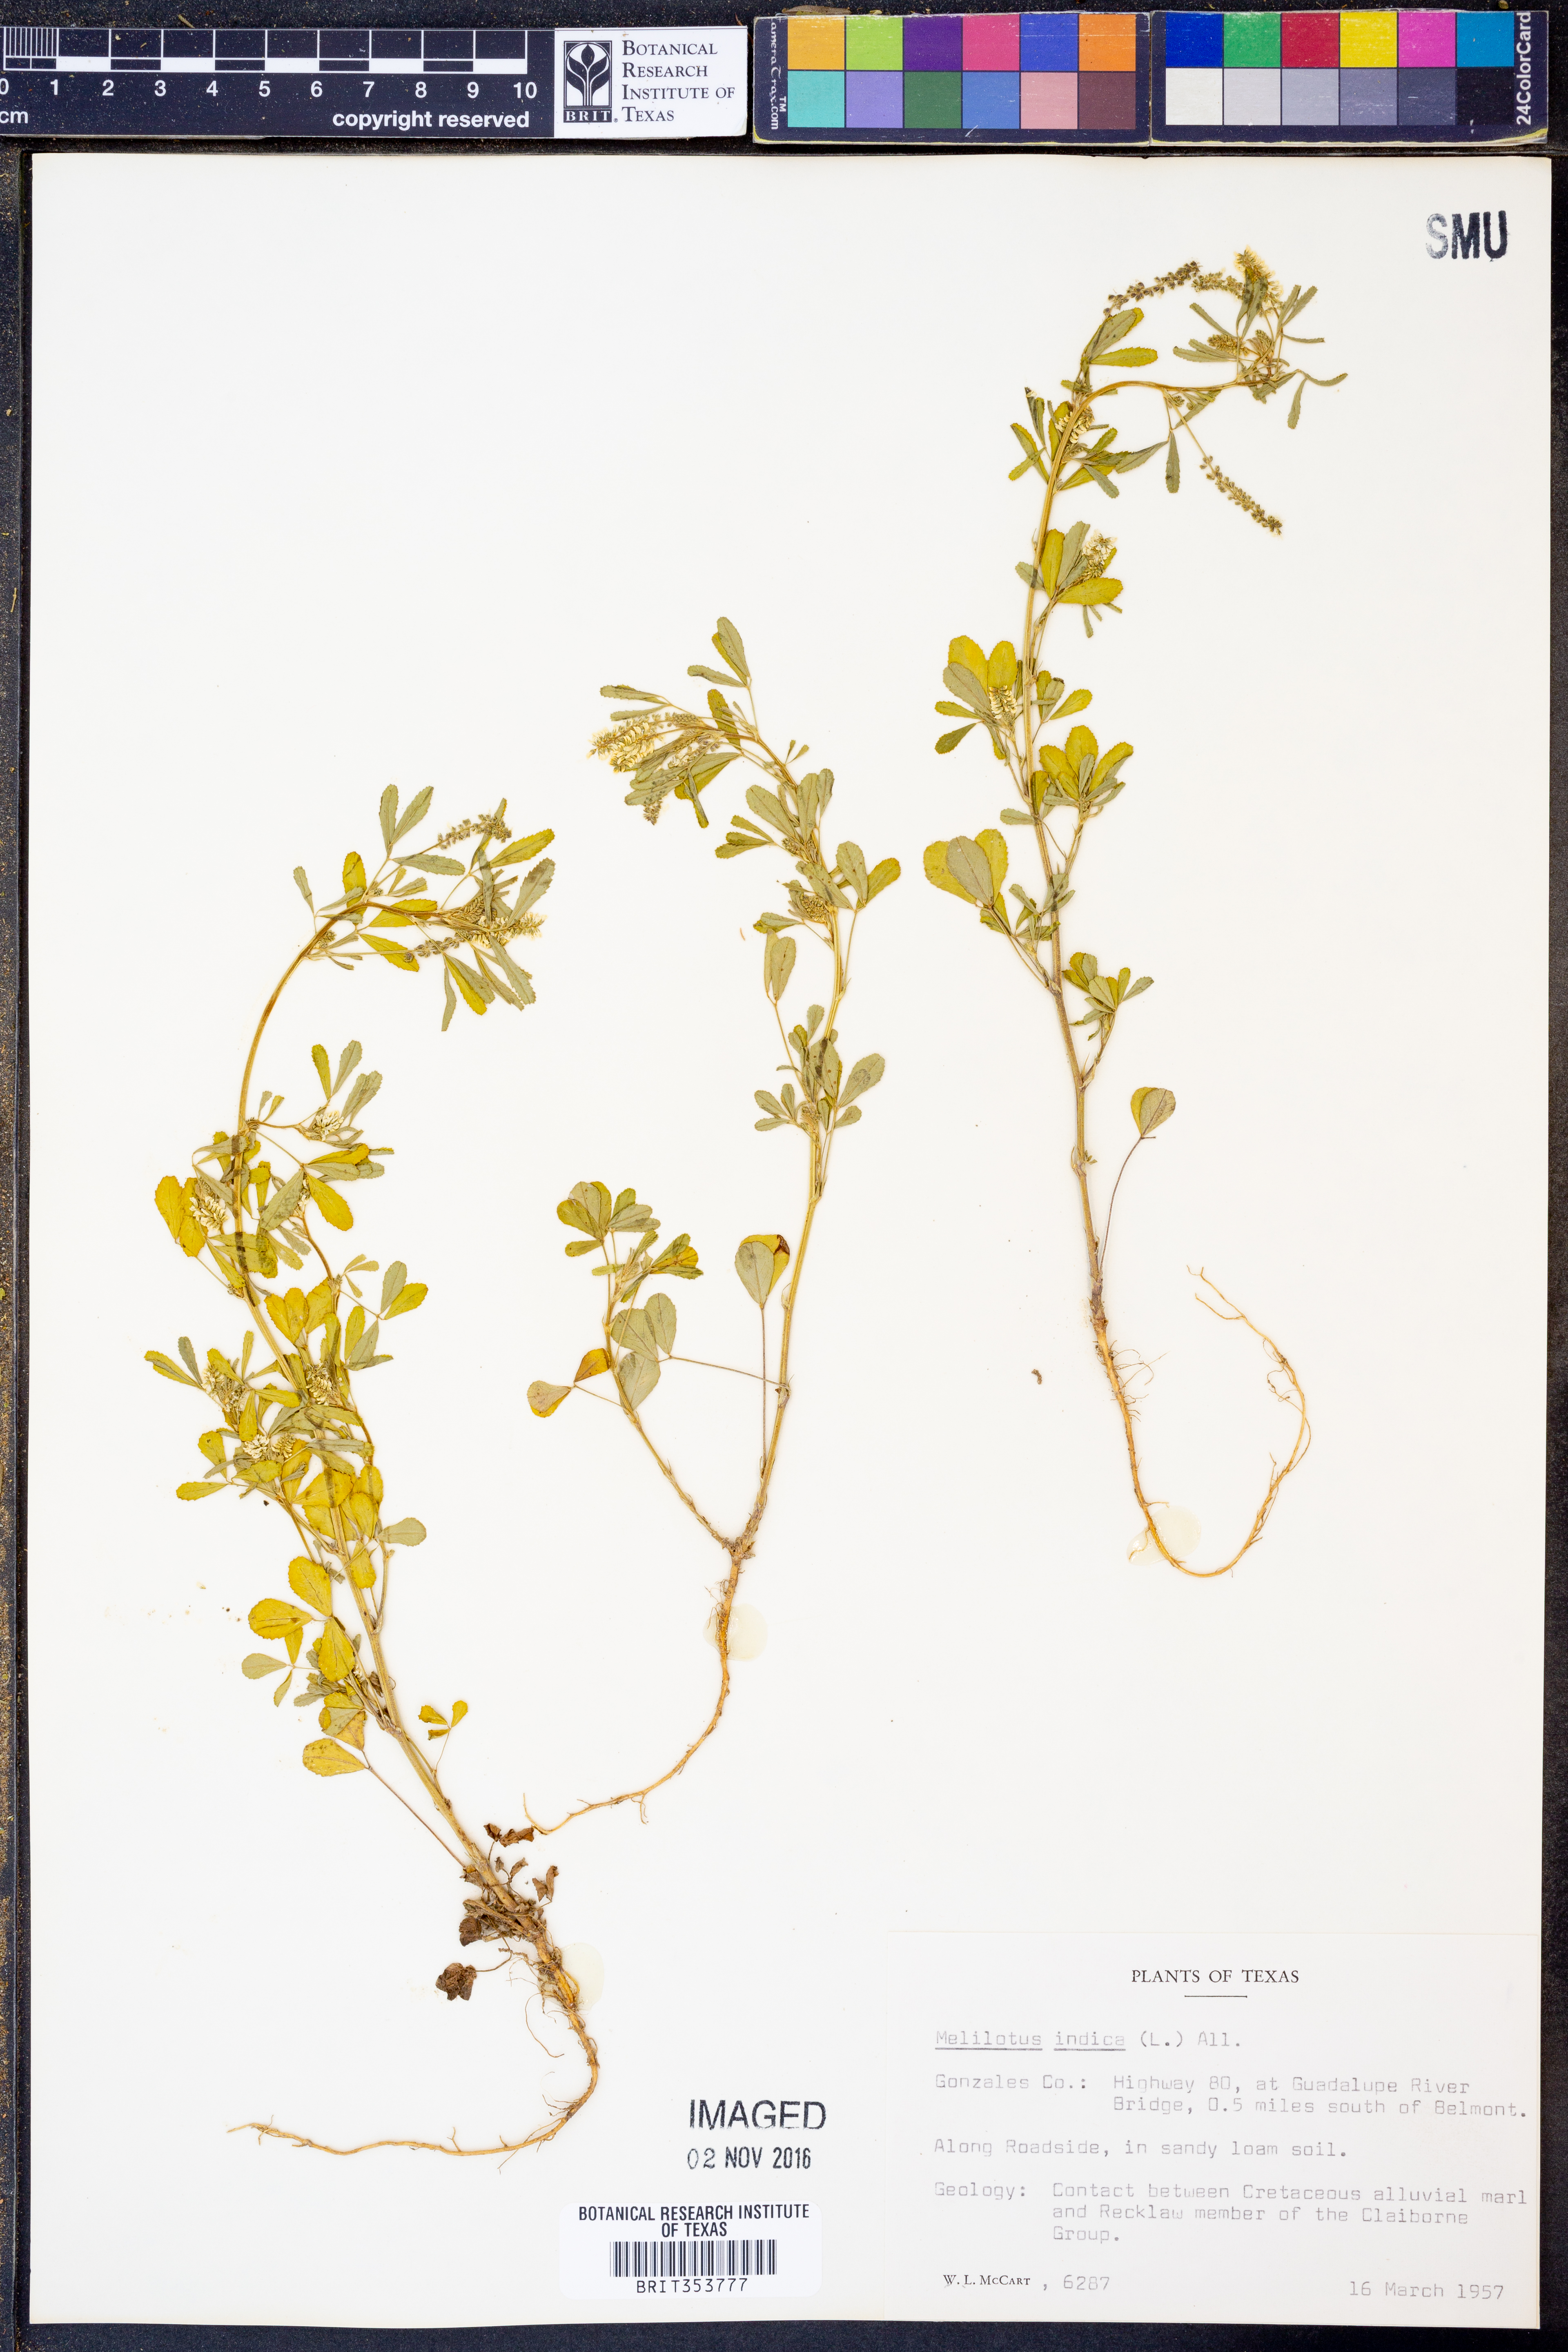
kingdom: Plantae
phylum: Tracheophyta
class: Magnoliopsida
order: Fabales
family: Fabaceae
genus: Melilotus
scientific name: Melilotus indicus
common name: Small melilot
